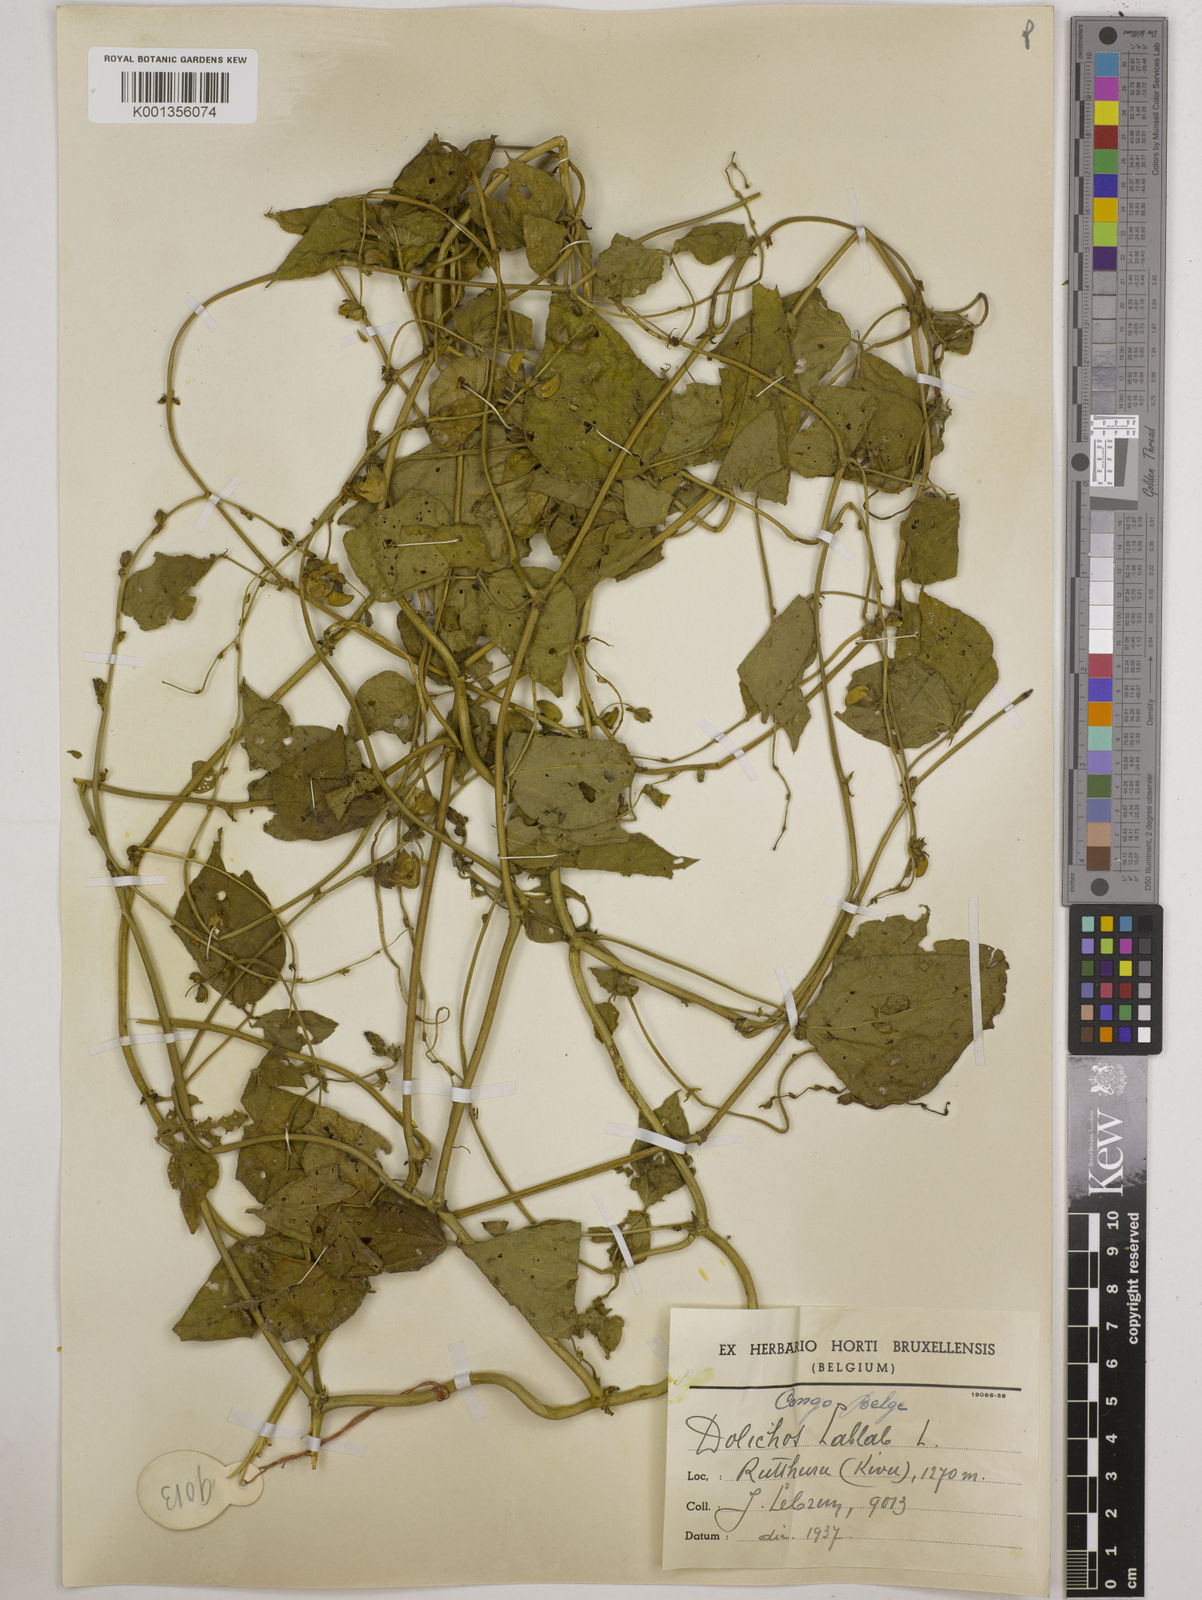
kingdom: Plantae
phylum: Tracheophyta
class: Magnoliopsida
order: Fabales
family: Fabaceae
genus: Lablab
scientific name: Lablab purpureus
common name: Lablab-bean
